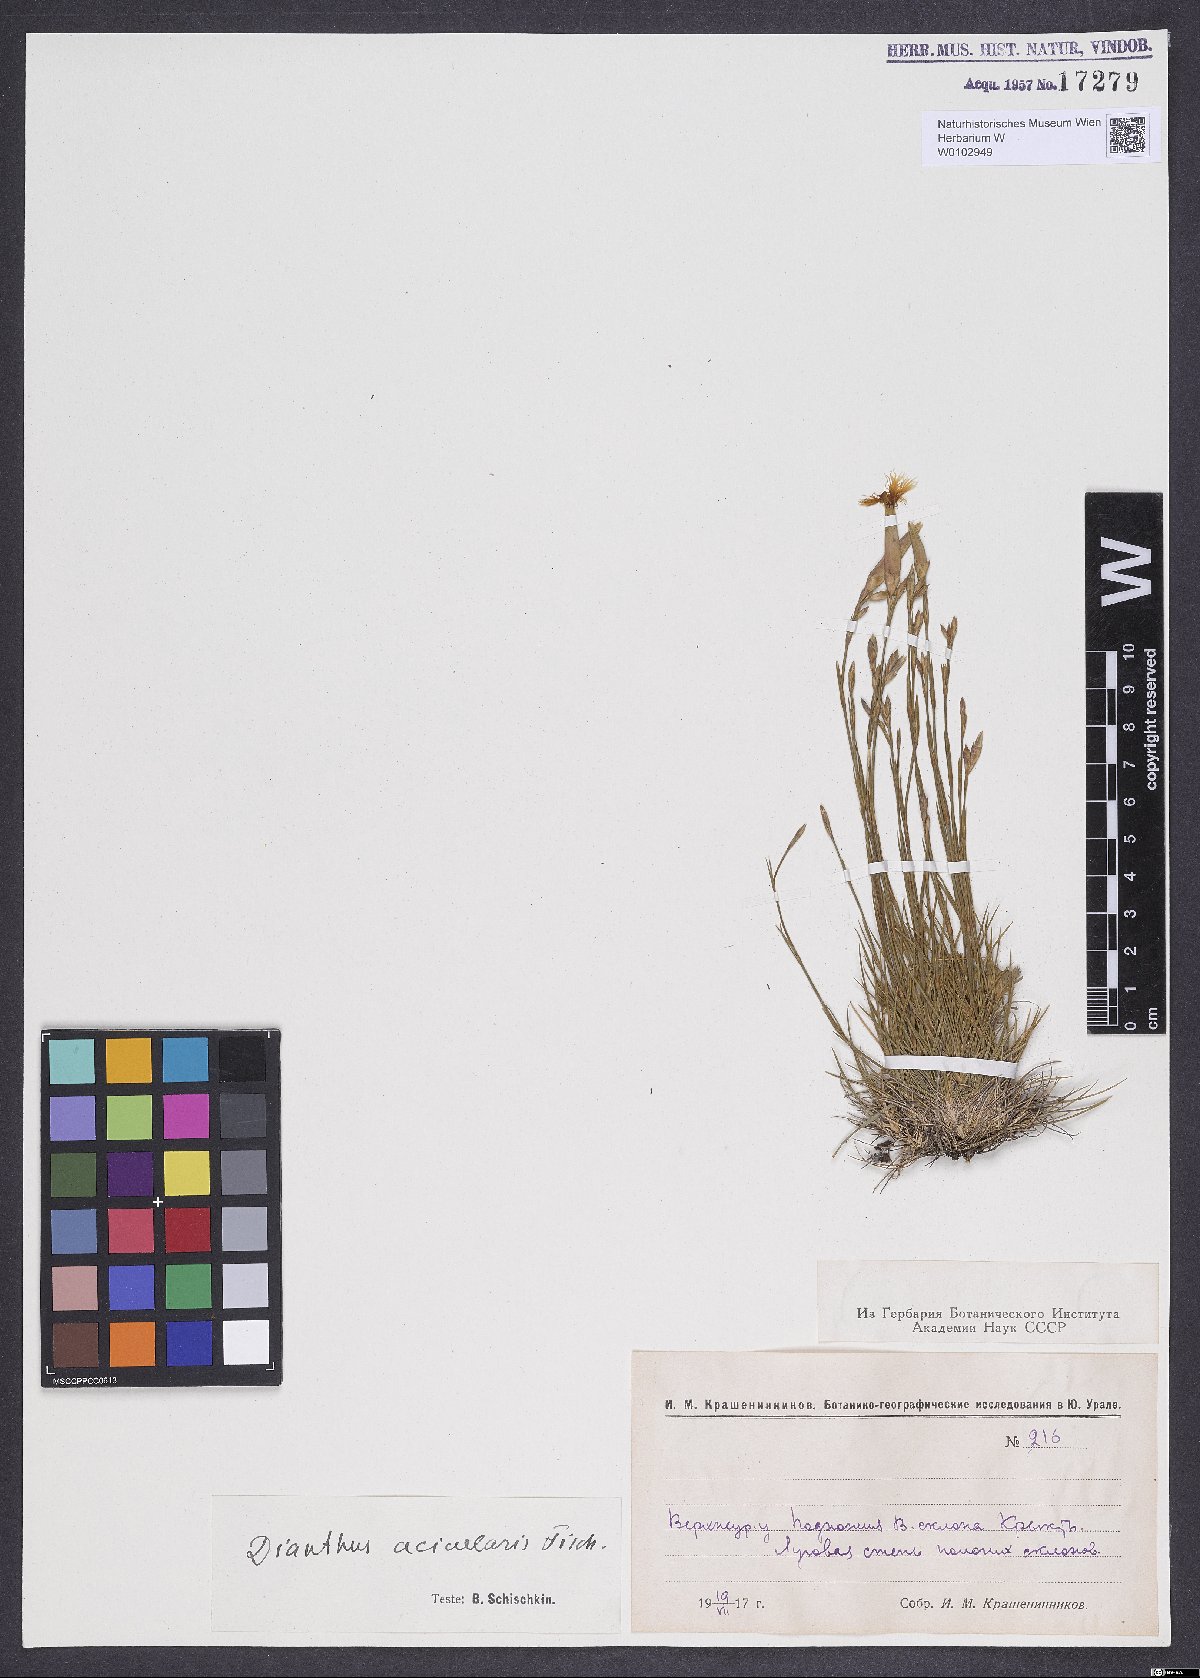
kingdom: Plantae
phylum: Tracheophyta
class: Magnoliopsida
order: Caryophyllales
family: Caryophyllaceae
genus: Dianthus
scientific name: Dianthus acicularis
